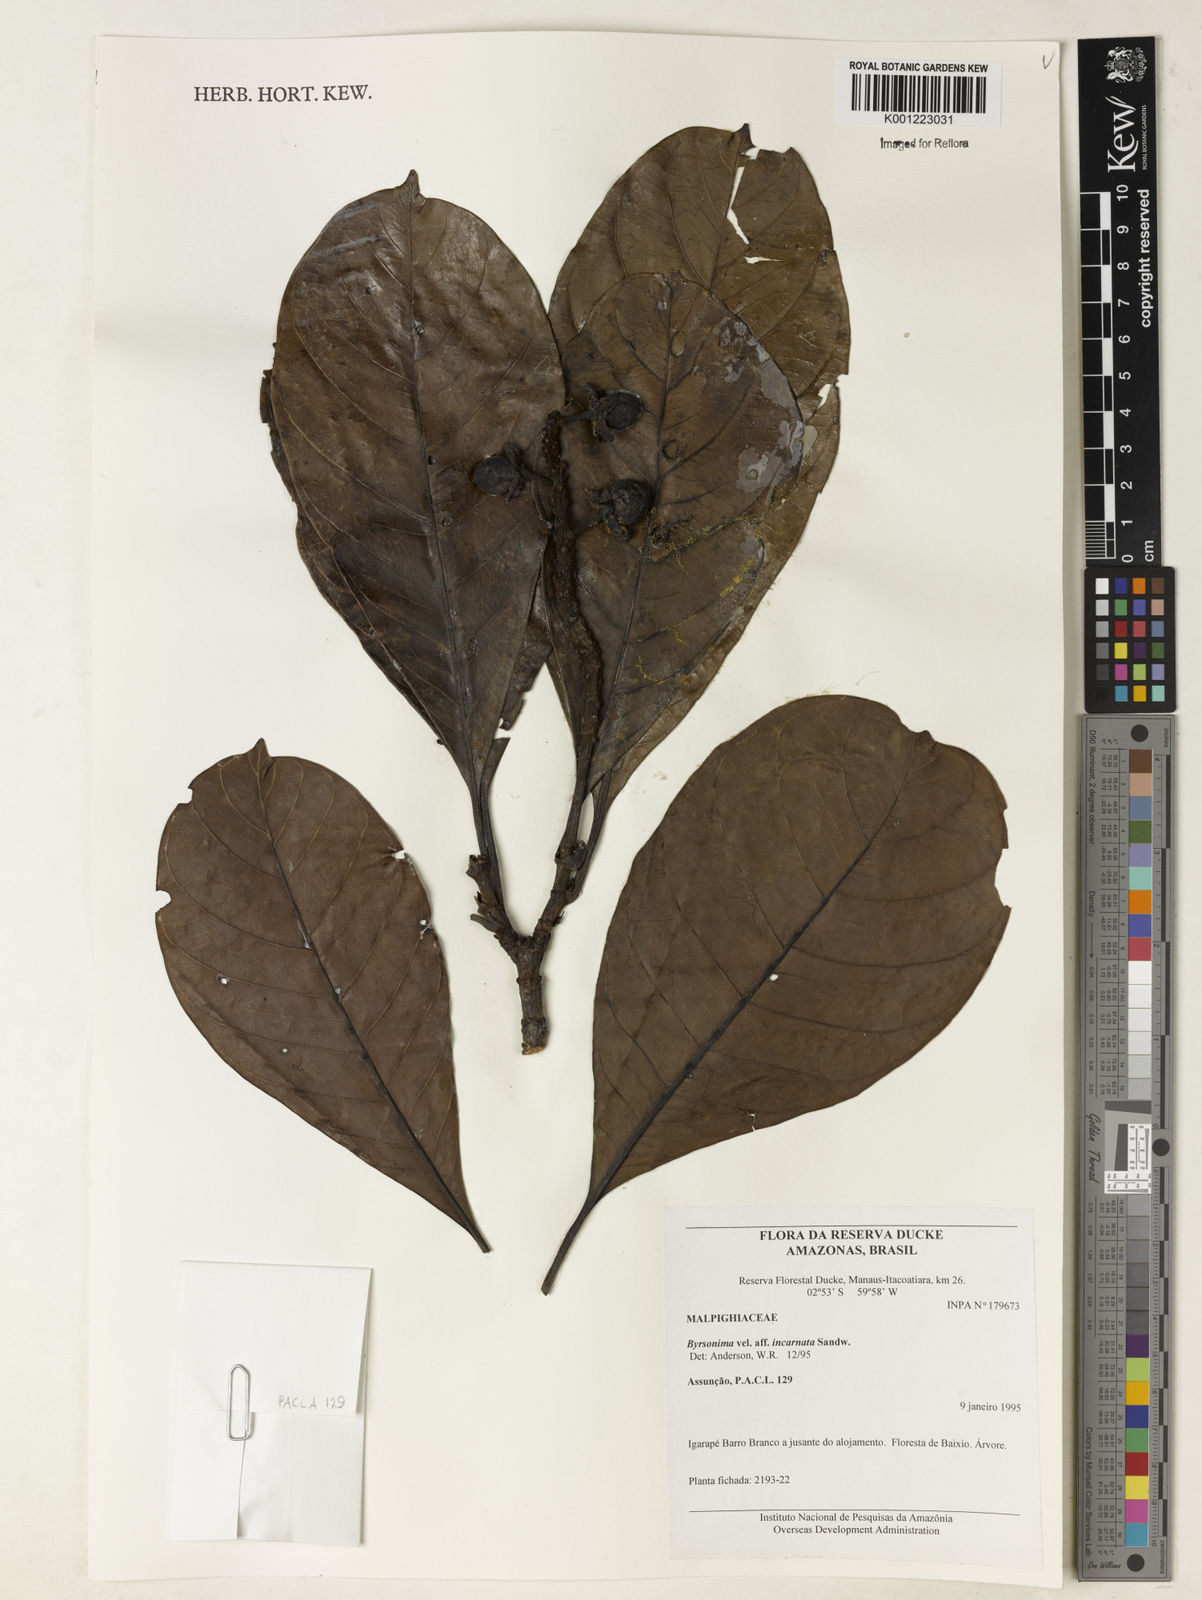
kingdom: Plantae
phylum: Tracheophyta
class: Magnoliopsida
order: Malpighiales
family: Malpighiaceae
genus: Byrsonima
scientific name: Byrsonima incarnata
